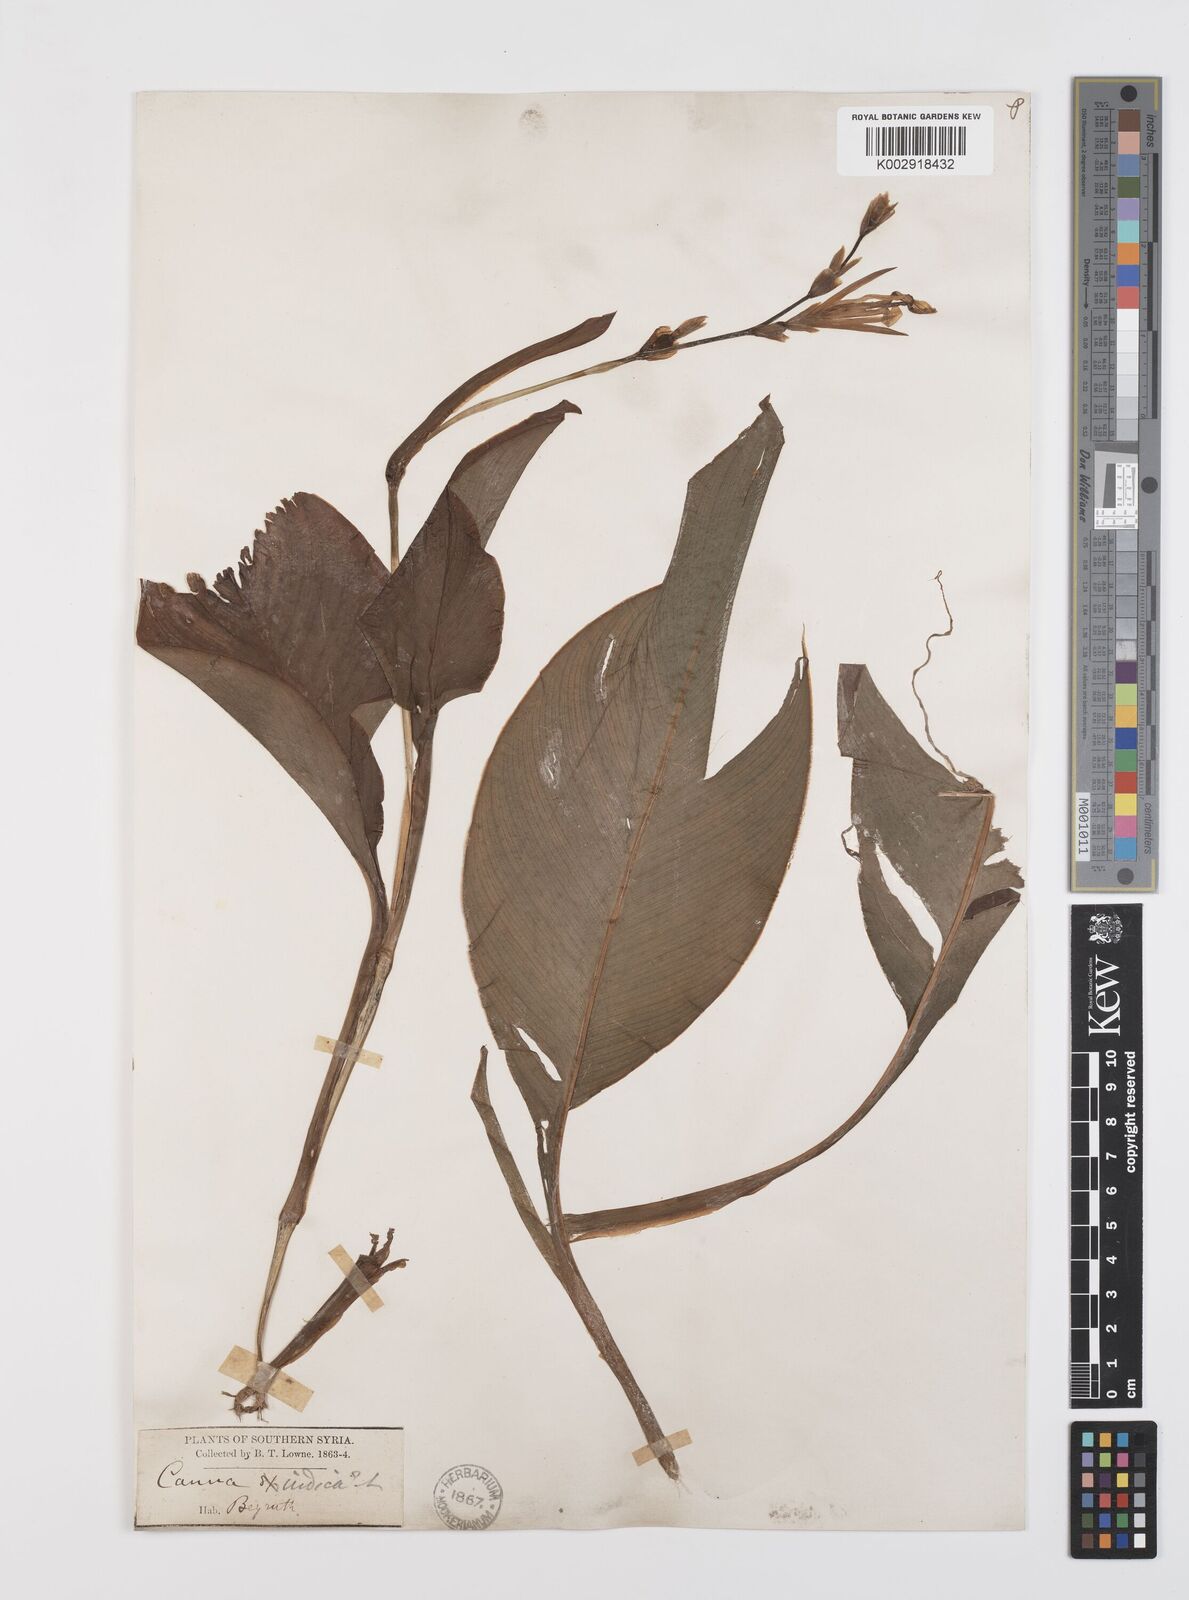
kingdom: Plantae
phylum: Tracheophyta
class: Liliopsida
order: Zingiberales
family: Cannaceae
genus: Canna
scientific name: Canna indica
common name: Indian shot
